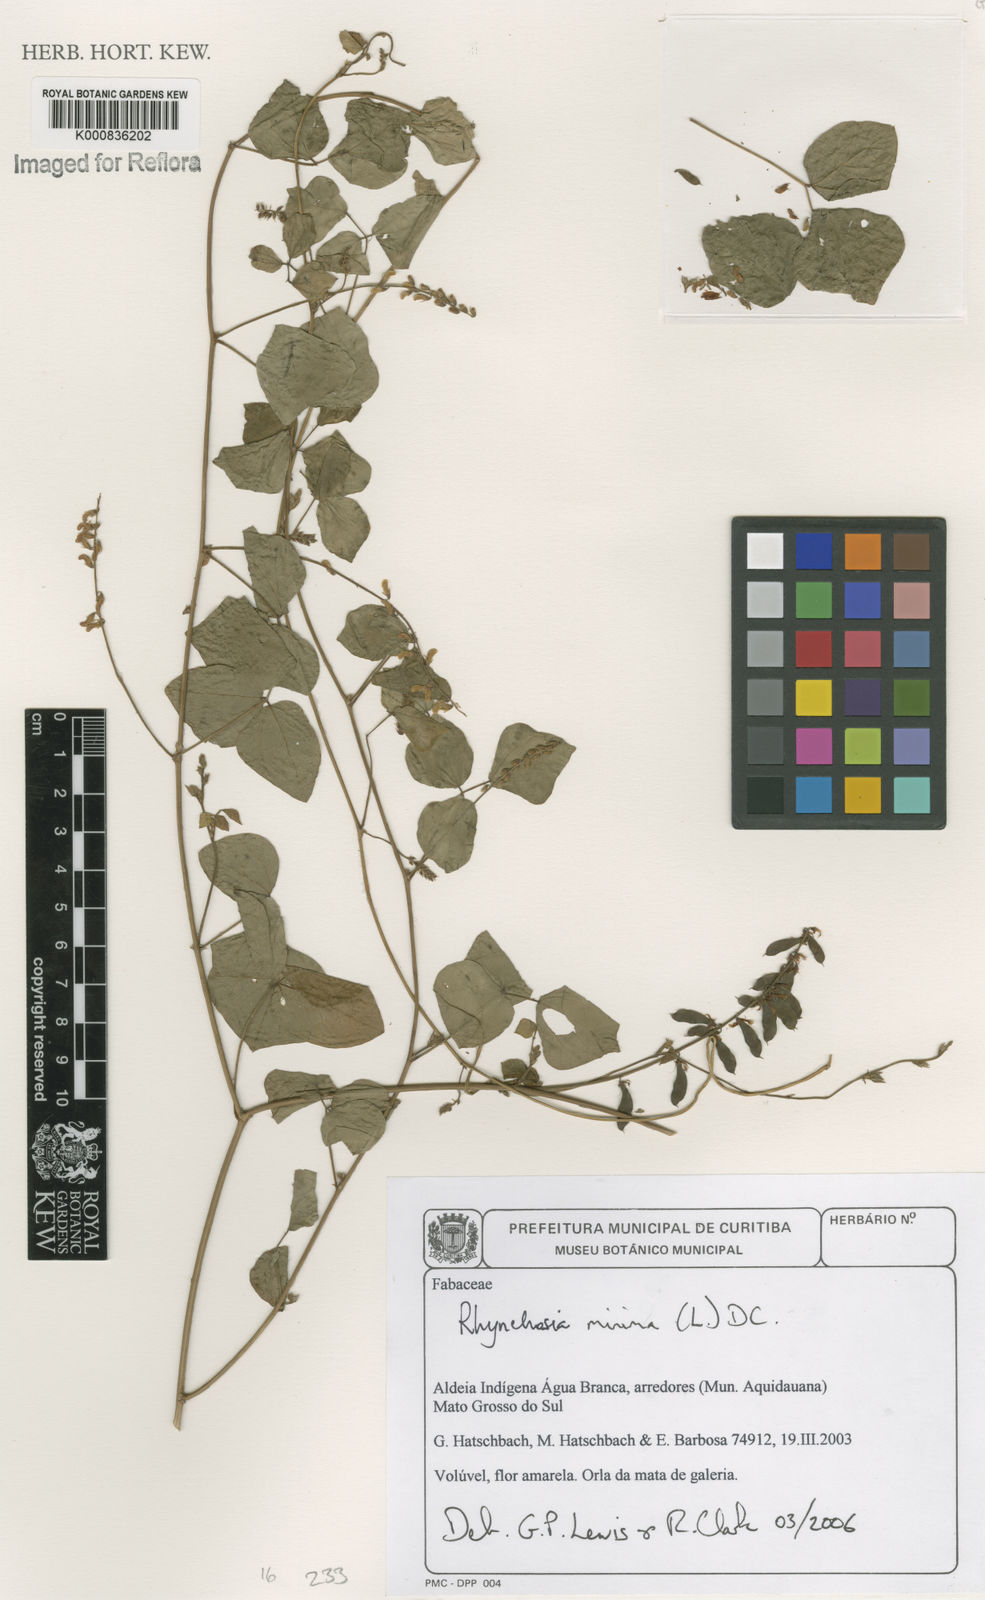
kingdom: Plantae
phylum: Tracheophyta
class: Magnoliopsida
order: Fabales
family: Fabaceae
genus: Rhynchosia
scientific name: Rhynchosia minima
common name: Least snoutbean
